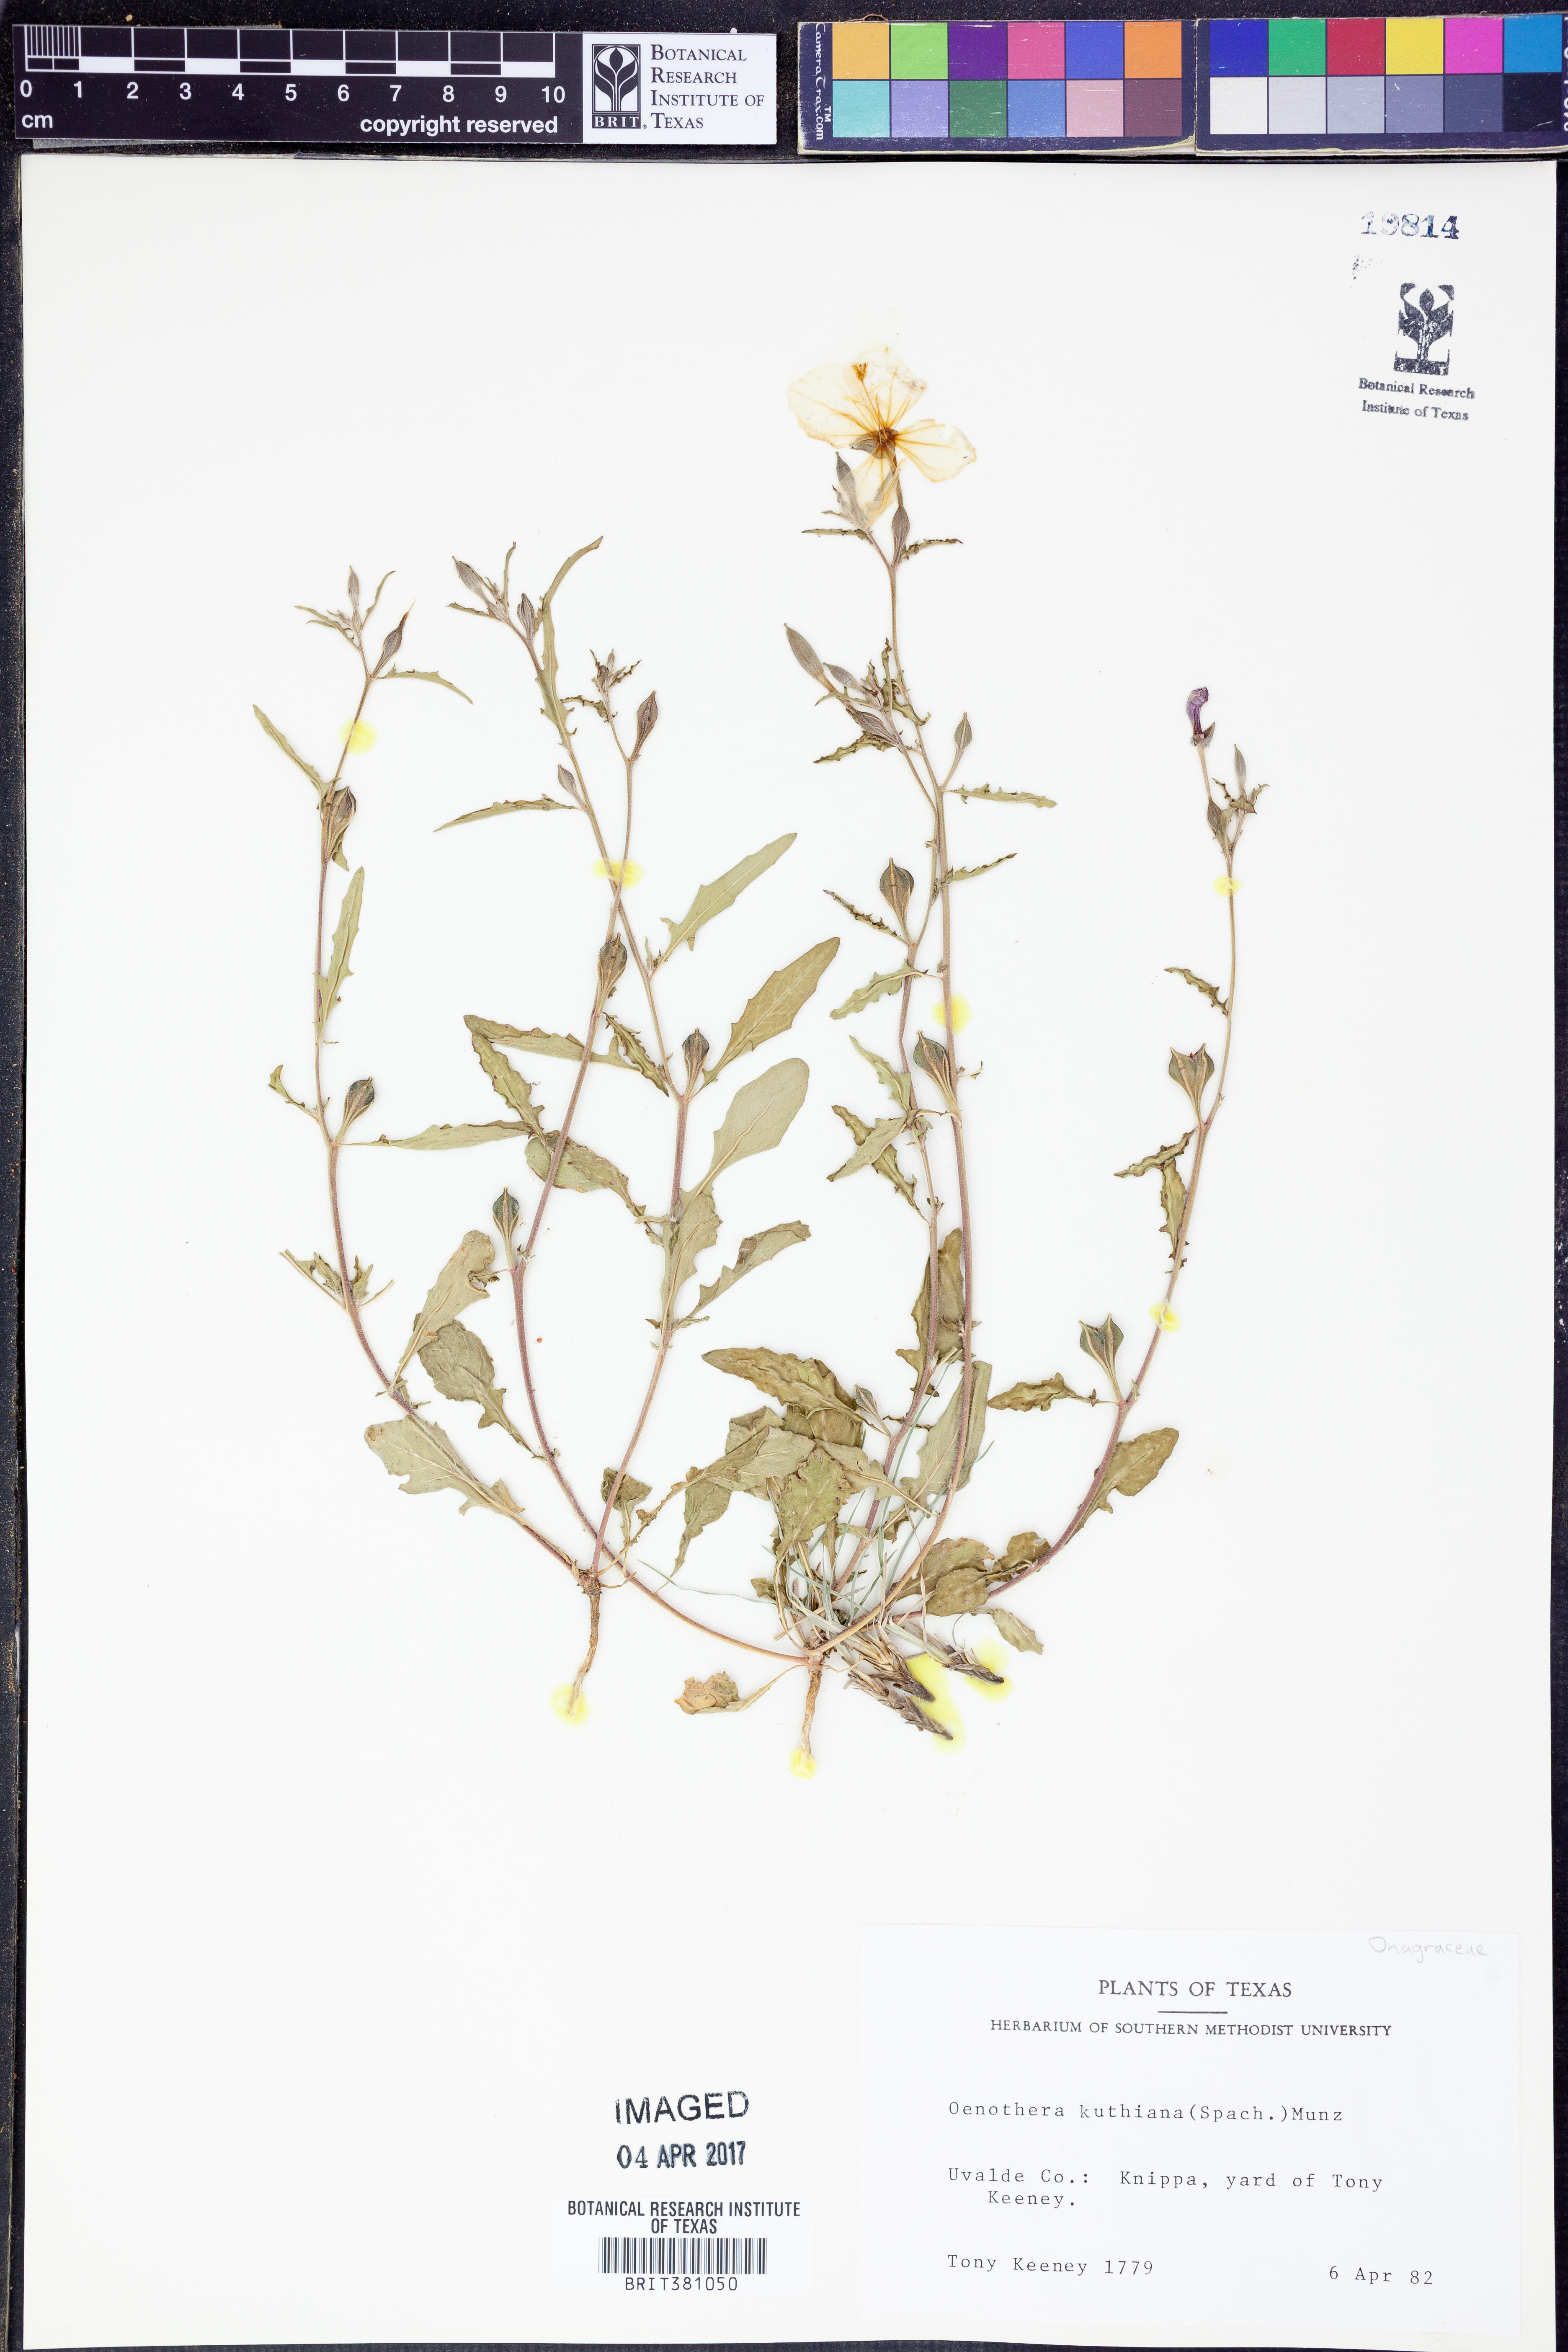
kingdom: Plantae
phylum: Tracheophyta
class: Magnoliopsida
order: Myrtales
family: Onagraceae
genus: Oenothera
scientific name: Oenothera kunthiana
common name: Kunth's evening-primrose
